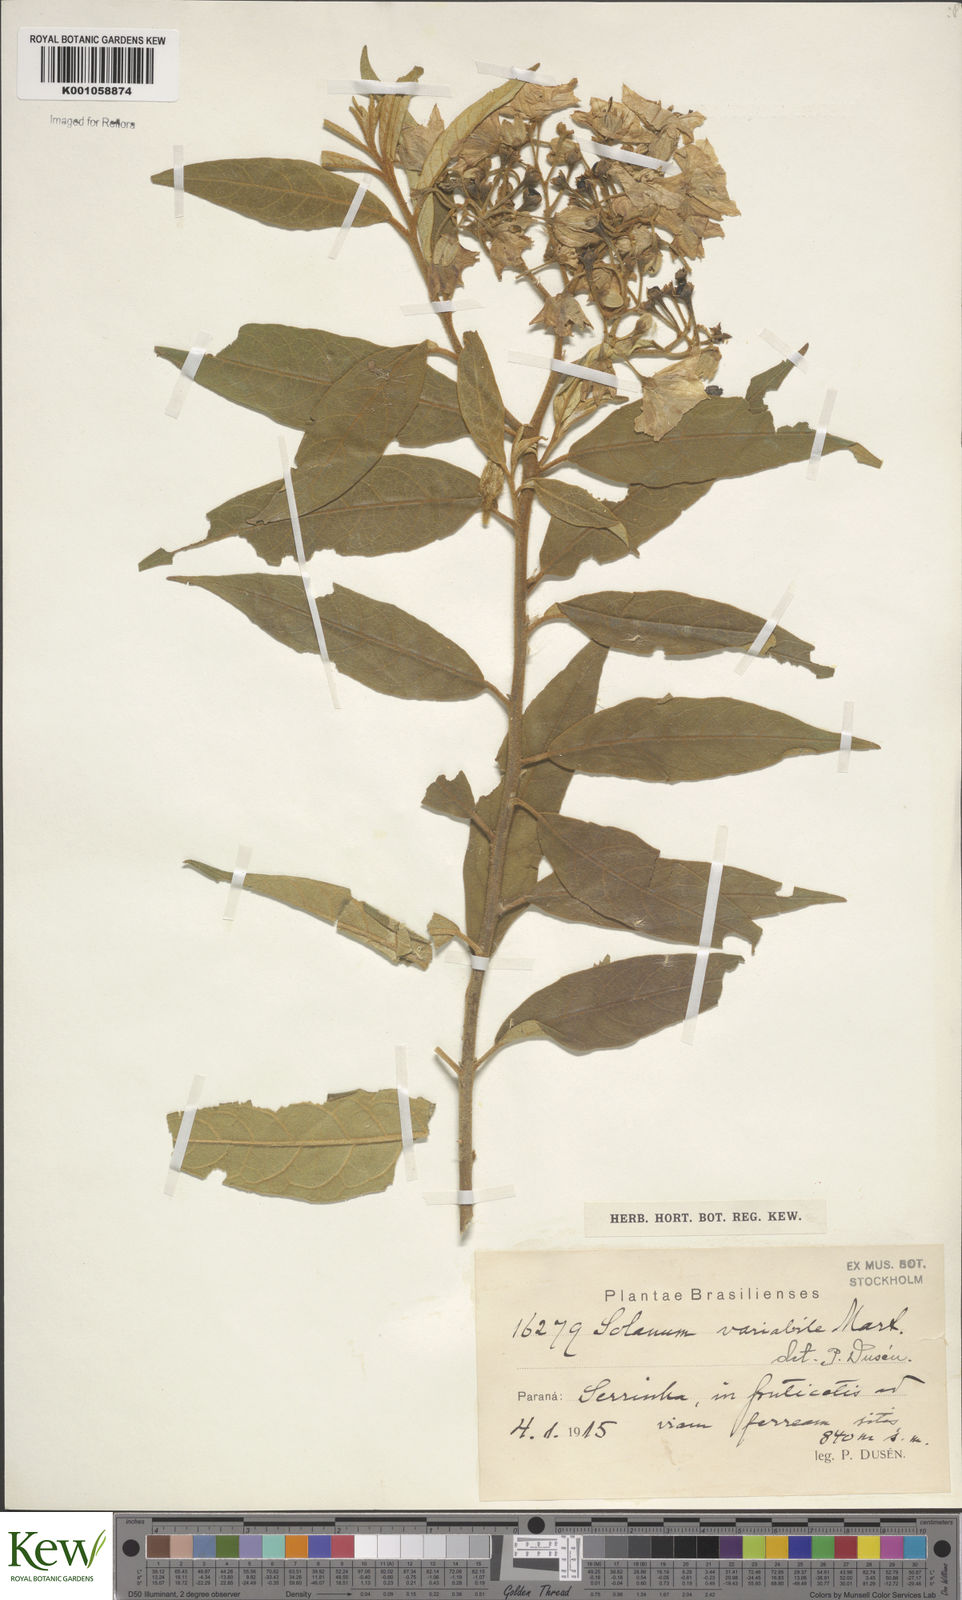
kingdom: Plantae
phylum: Tracheophyta
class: Magnoliopsida
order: Solanales
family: Solanaceae
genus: Solanum
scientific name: Solanum variabile
